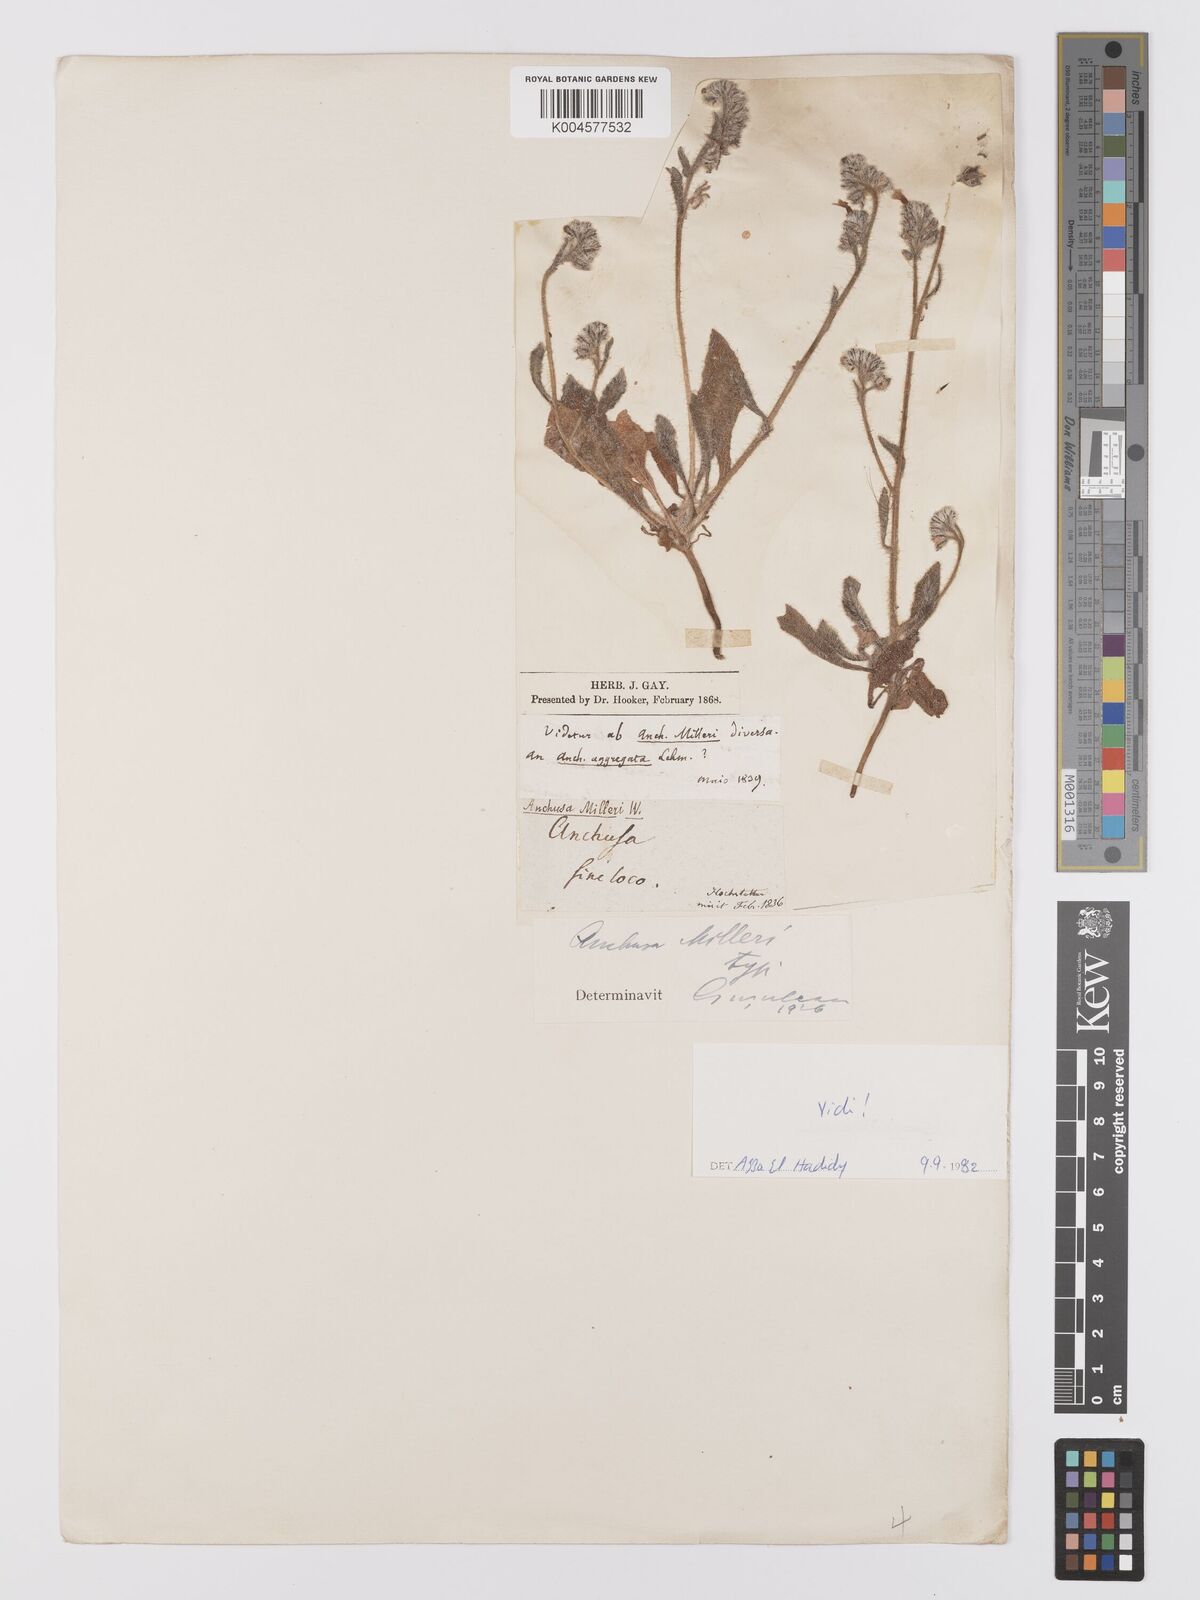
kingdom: Plantae
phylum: Tracheophyta
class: Magnoliopsida
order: Boraginales
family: Boraginaceae
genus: Anchusa
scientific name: Anchusa milleri
